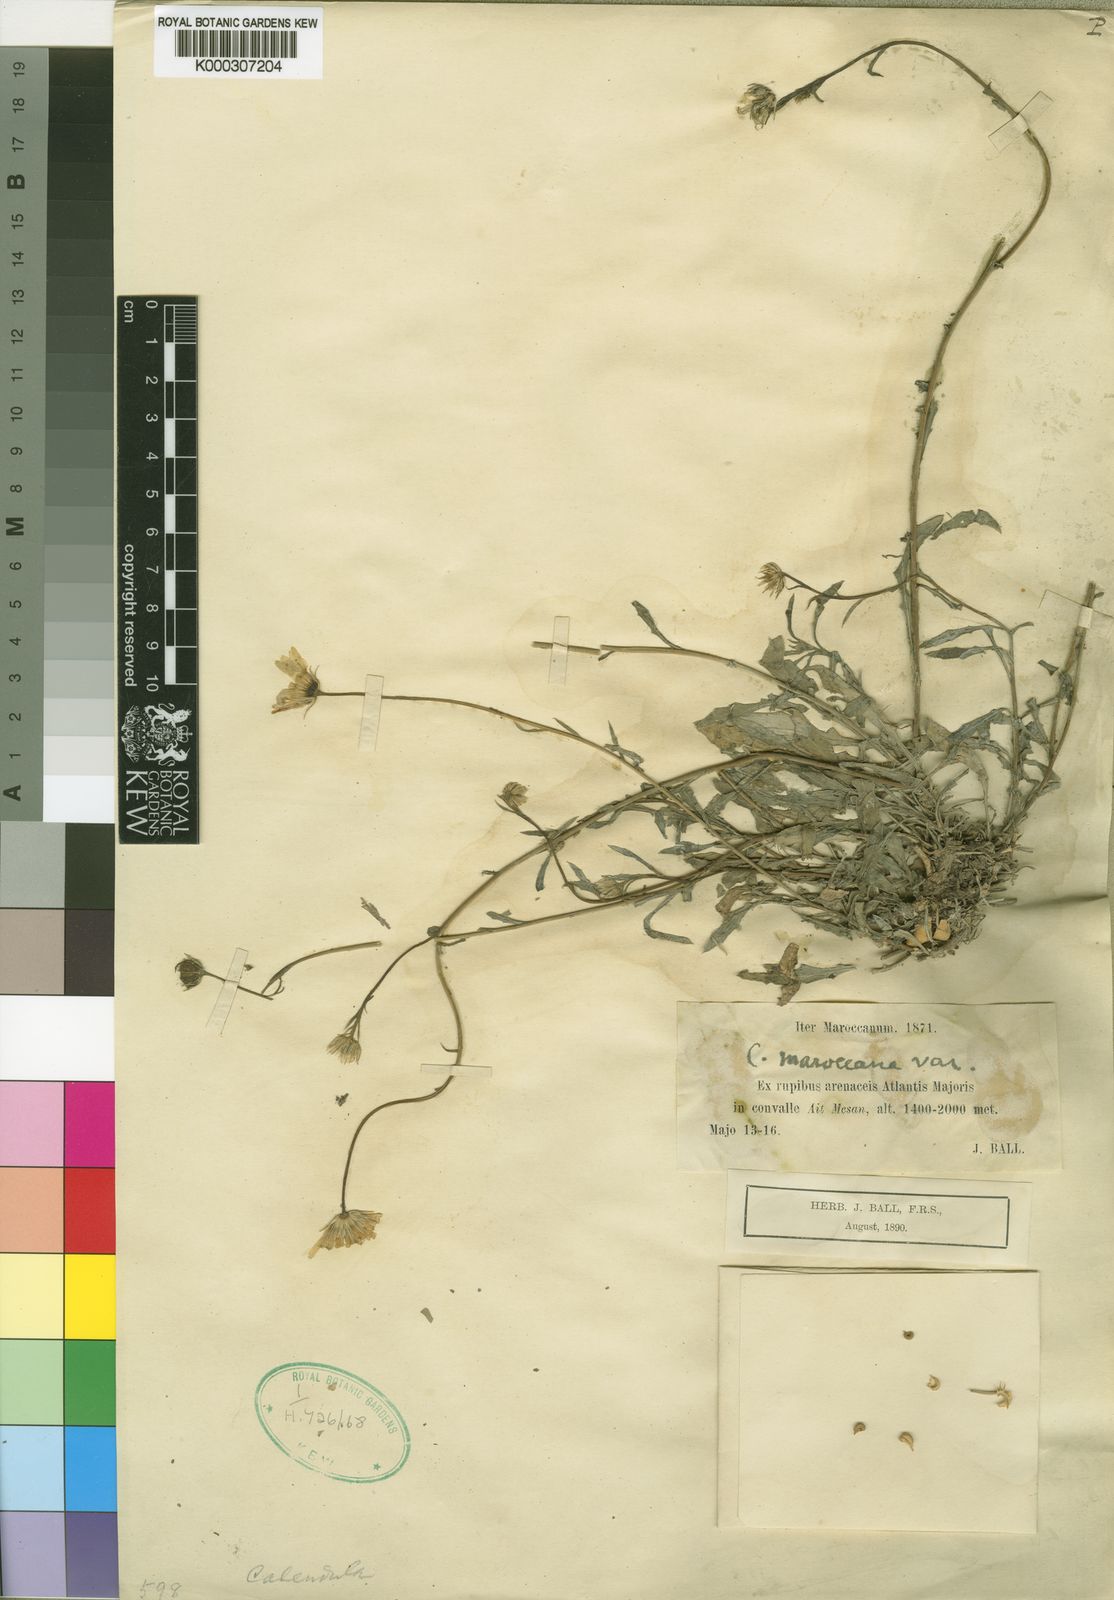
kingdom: Plantae
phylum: Tracheophyta
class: Magnoliopsida
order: Asterales
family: Asteraceae
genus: Calendula
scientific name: Calendula maroccana
